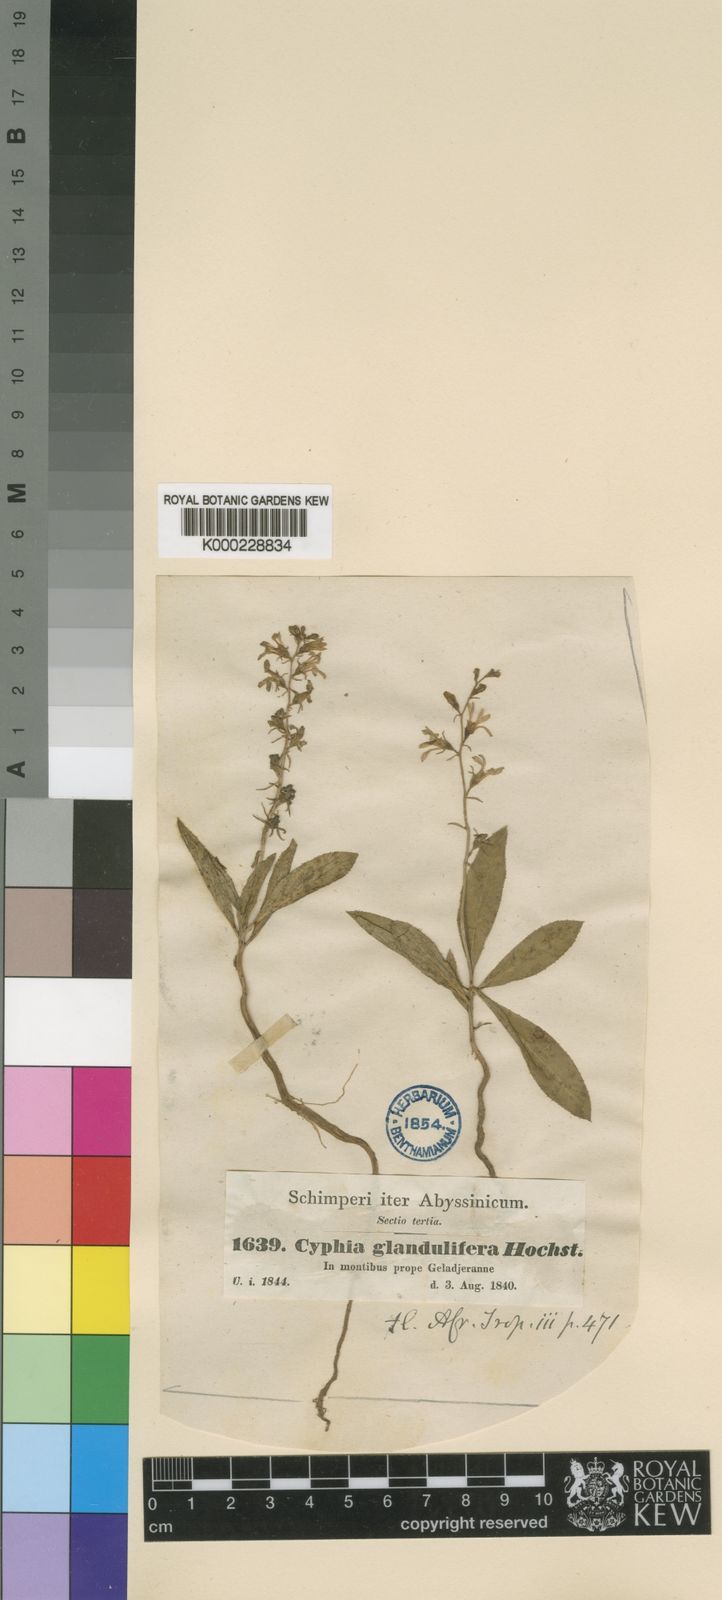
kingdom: Plantae
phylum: Tracheophyta
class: Magnoliopsida
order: Asterales
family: Campanulaceae
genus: Cyphia
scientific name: Cyphia glandulifera
